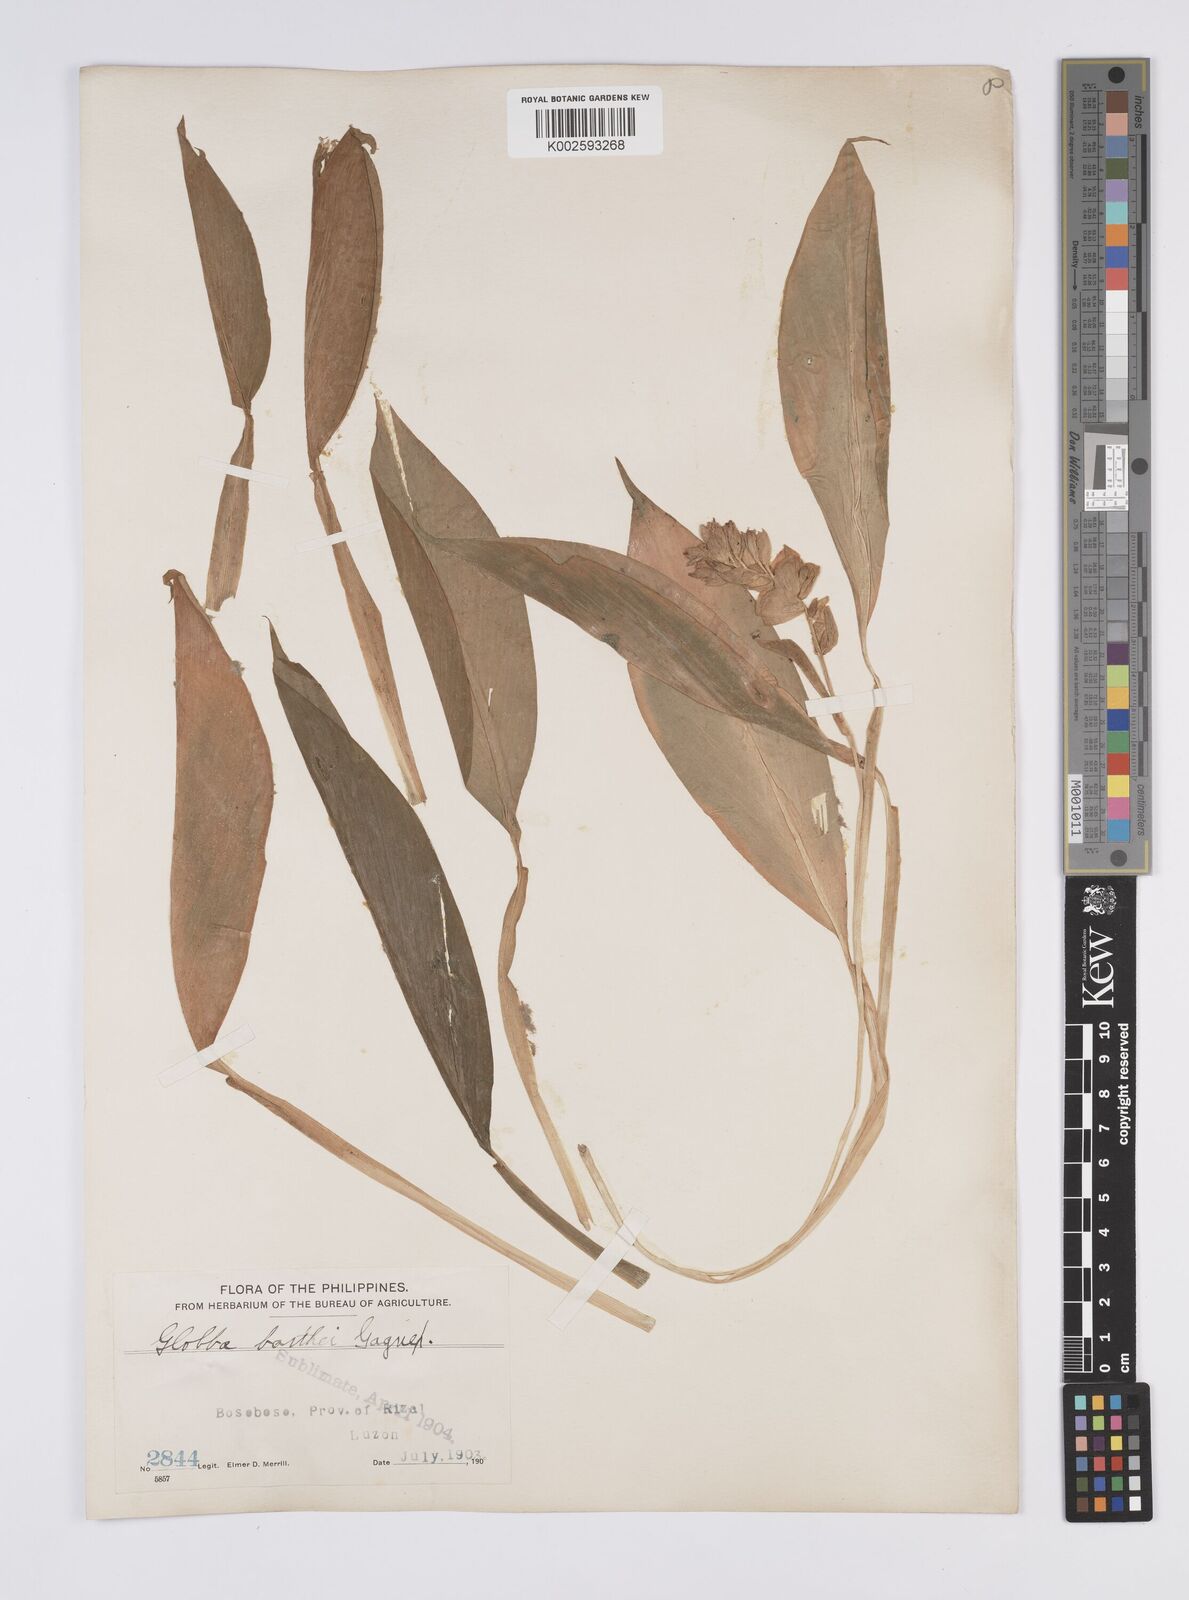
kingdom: Plantae
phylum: Tracheophyta
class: Liliopsida
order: Zingiberales
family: Zingiberaceae
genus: Globba
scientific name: Globba marantina
